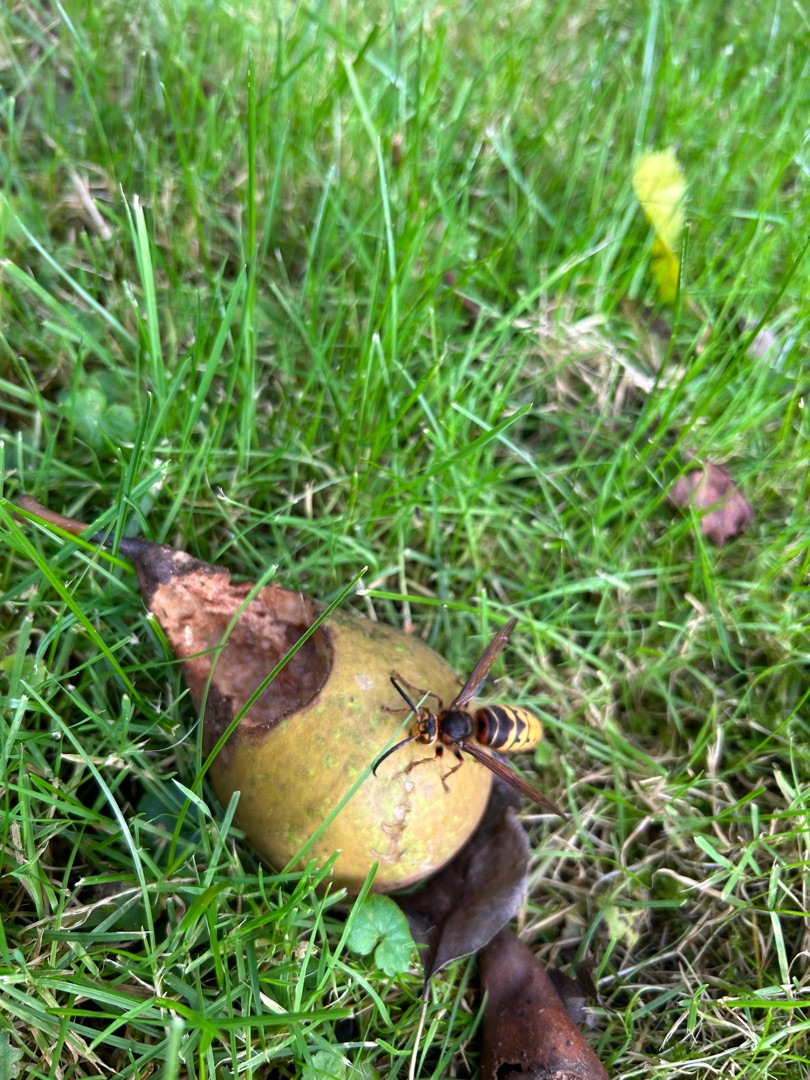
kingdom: Animalia
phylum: Arthropoda
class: Insecta
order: Hymenoptera
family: Vespidae
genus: Vespa
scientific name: Vespa crabro
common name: Stor gedehams
